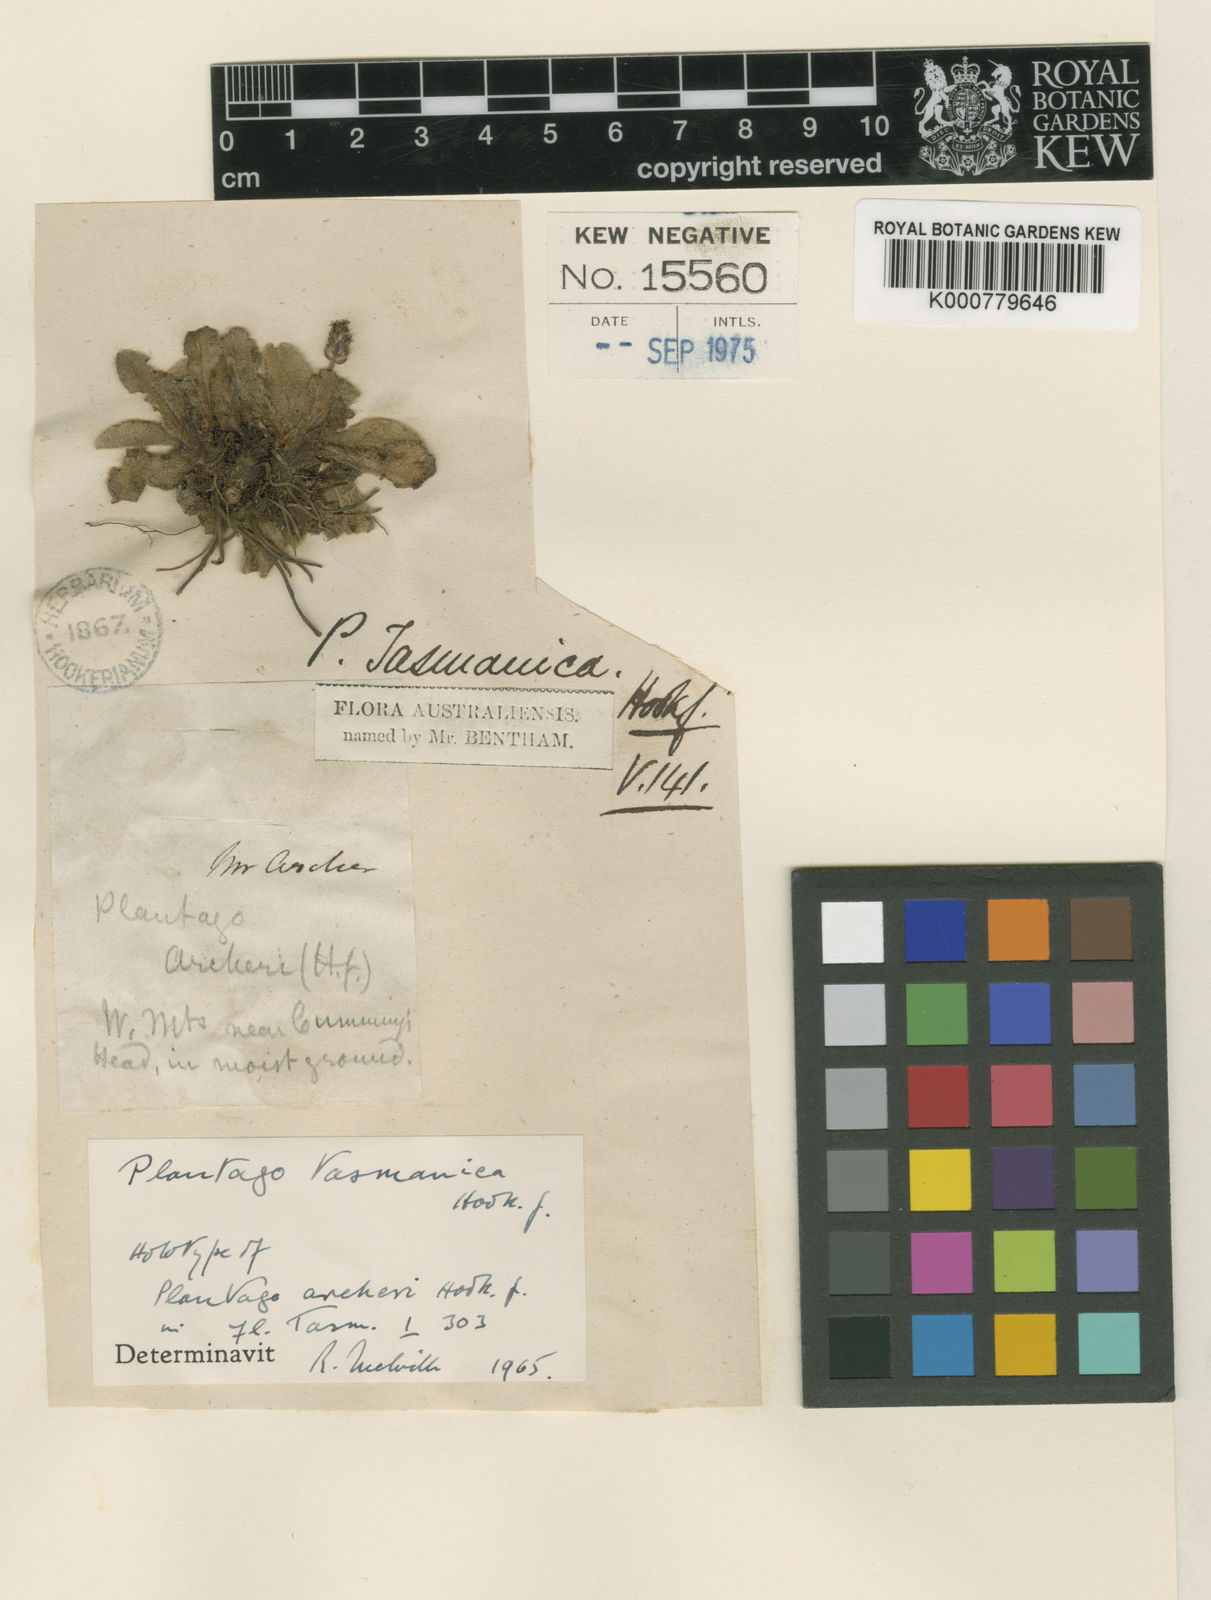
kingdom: Plantae
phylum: Tracheophyta
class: Magnoliopsida
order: Lamiales
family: Plantaginaceae
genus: Plantago
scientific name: Plantago tasmanica
